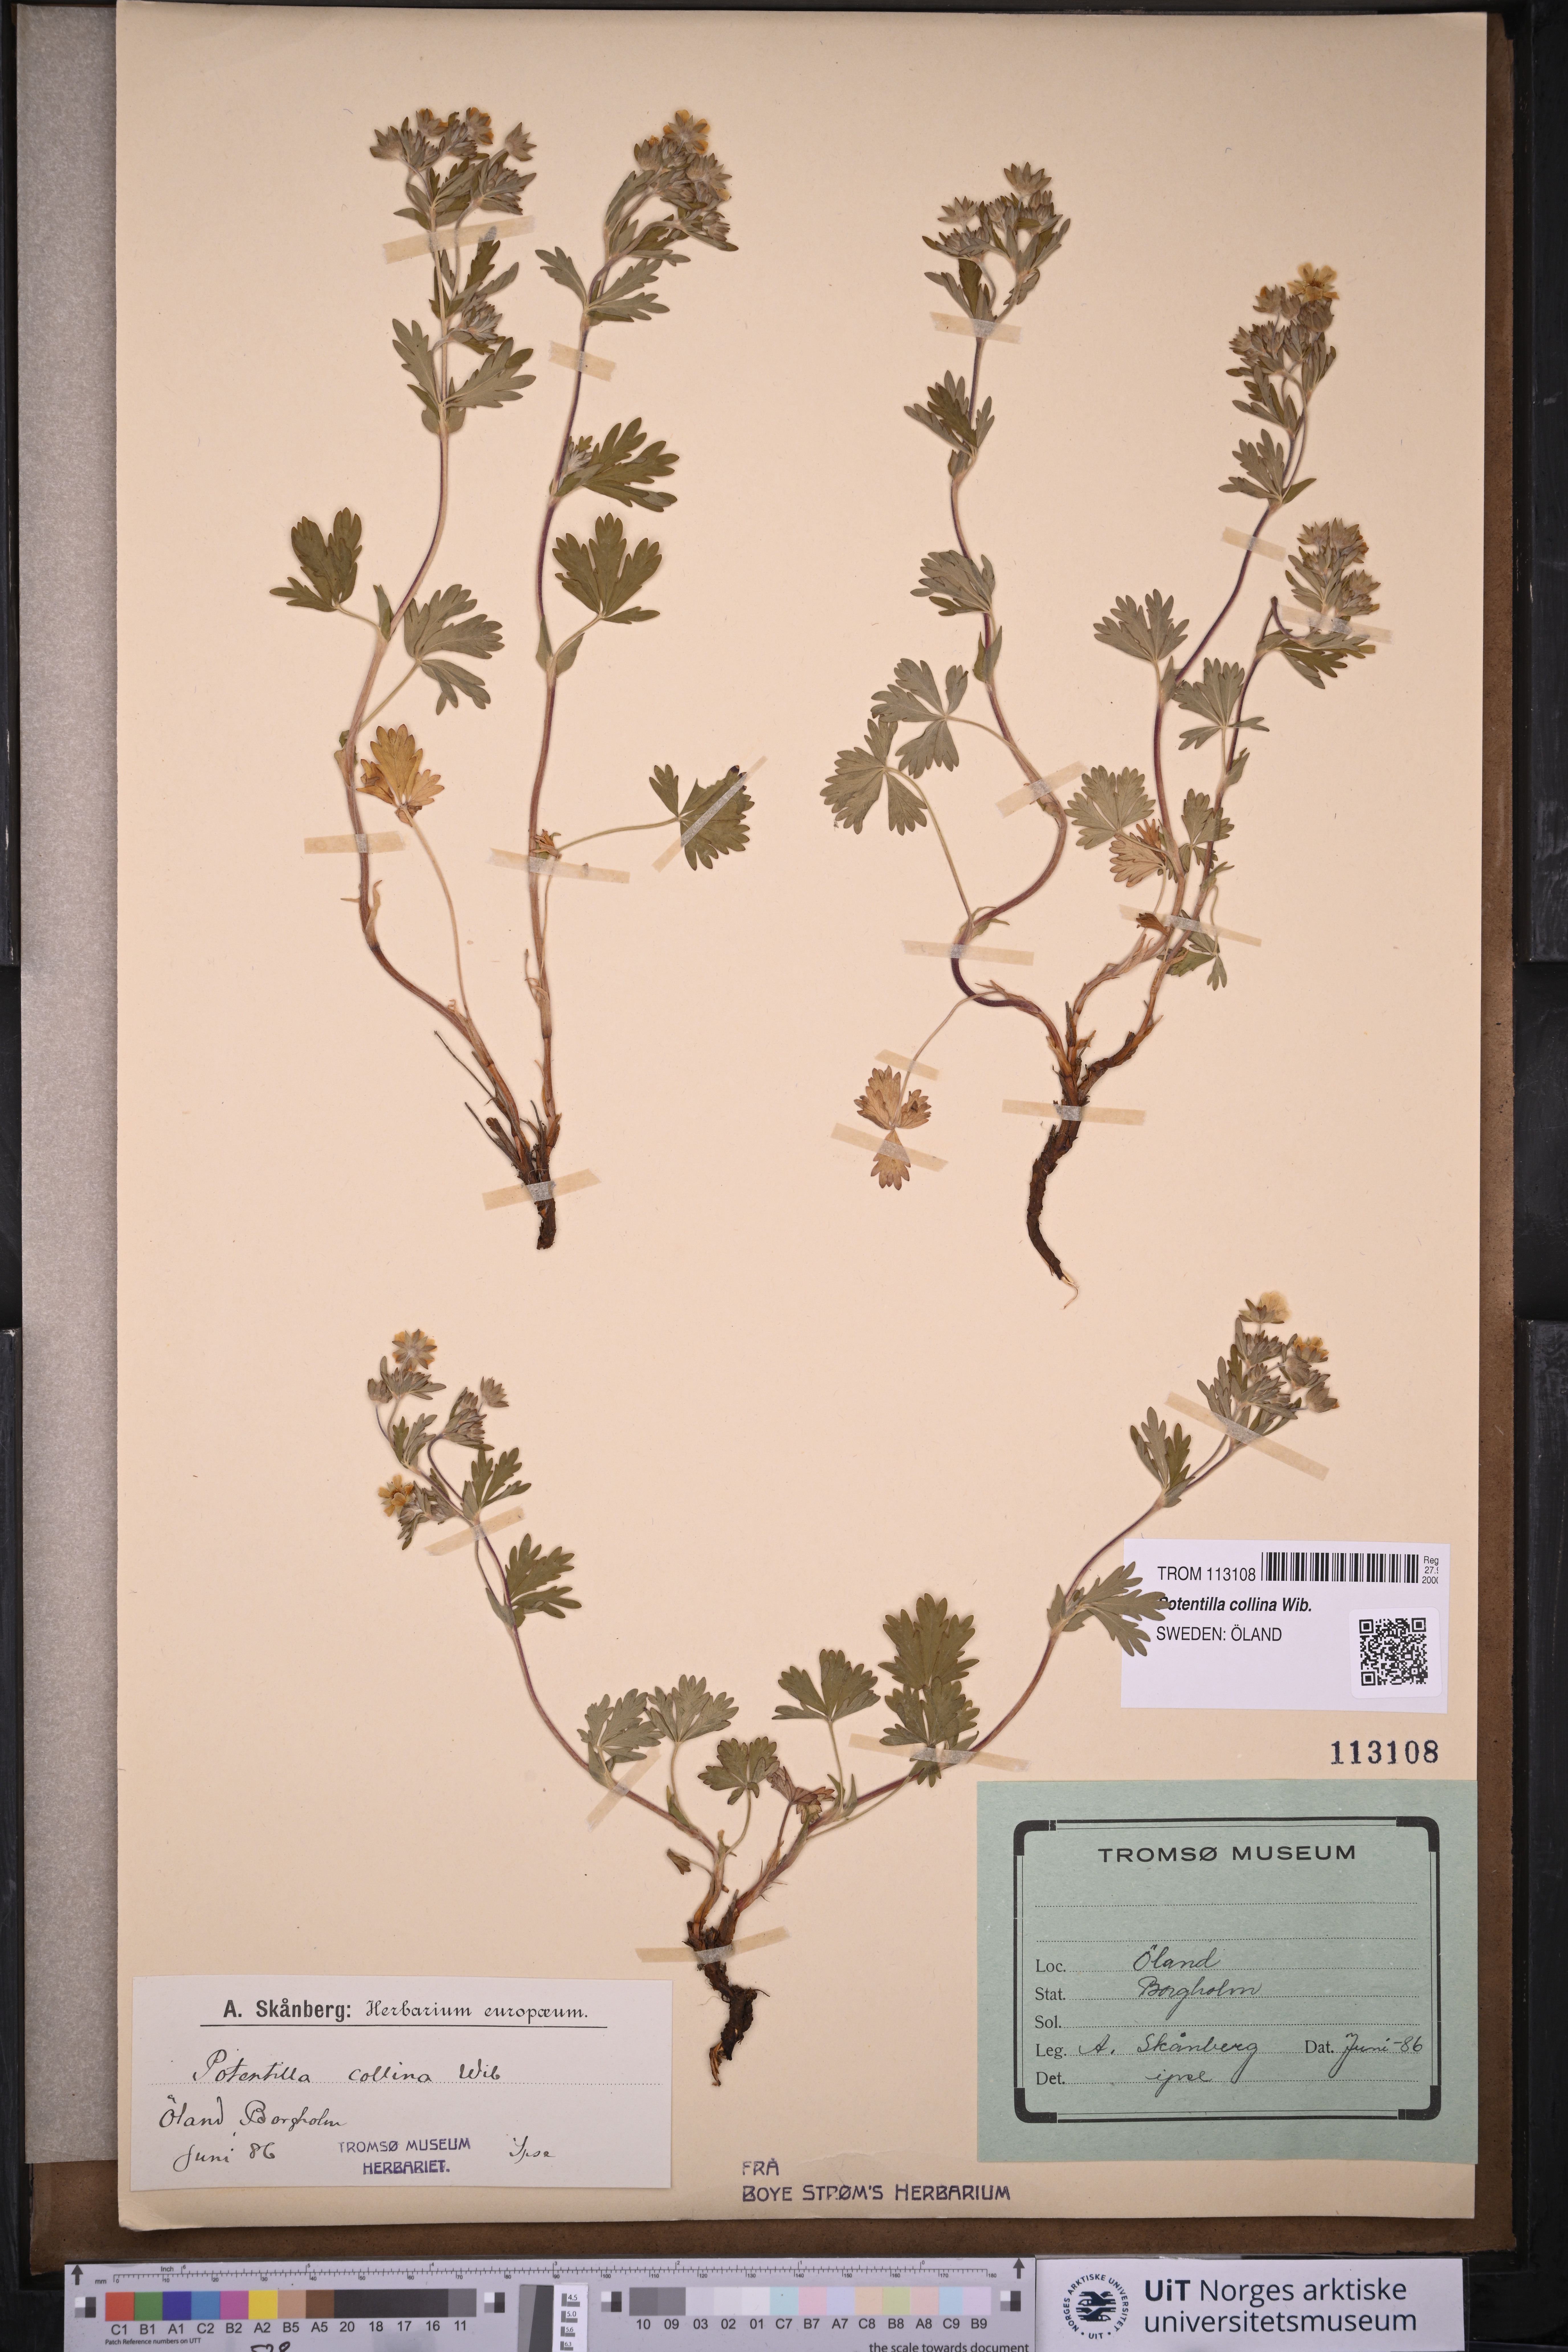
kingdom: Plantae
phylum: Tracheophyta
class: Magnoliopsida
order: Rosales
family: Rosaceae
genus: Potentilla
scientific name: Potentilla sterneri
